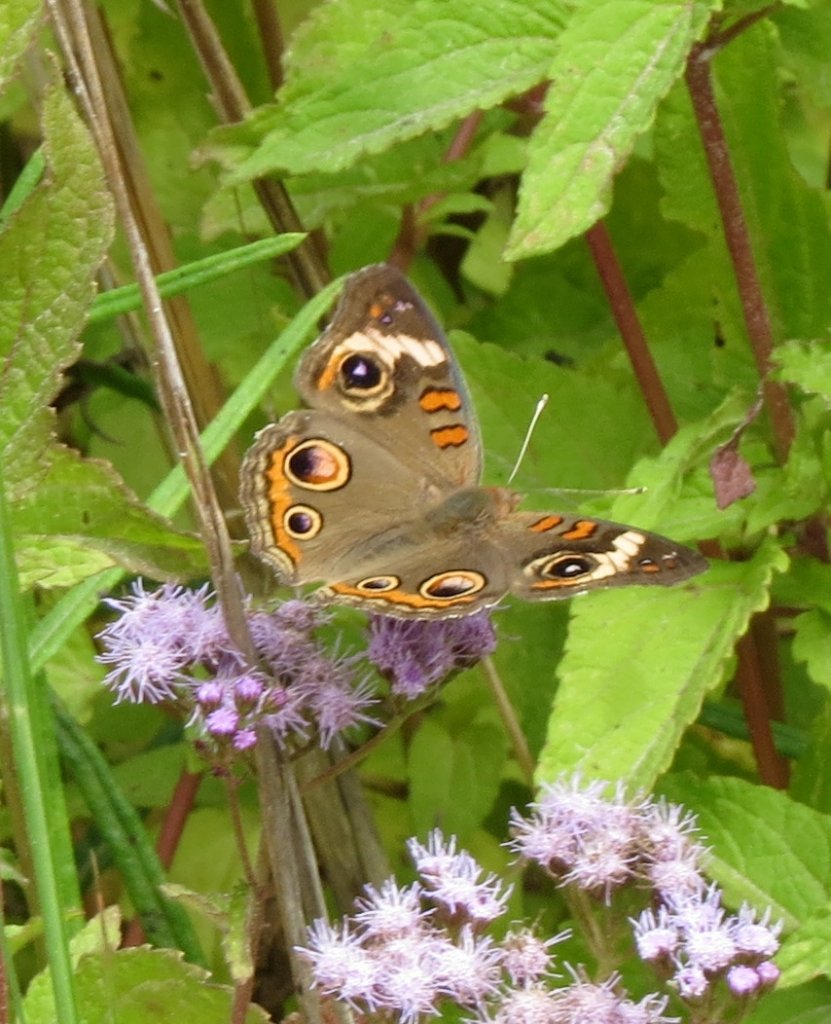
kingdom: Animalia
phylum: Arthropoda
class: Insecta
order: Lepidoptera
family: Nymphalidae
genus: Junonia
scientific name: Junonia coenia
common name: Common Buckeye
